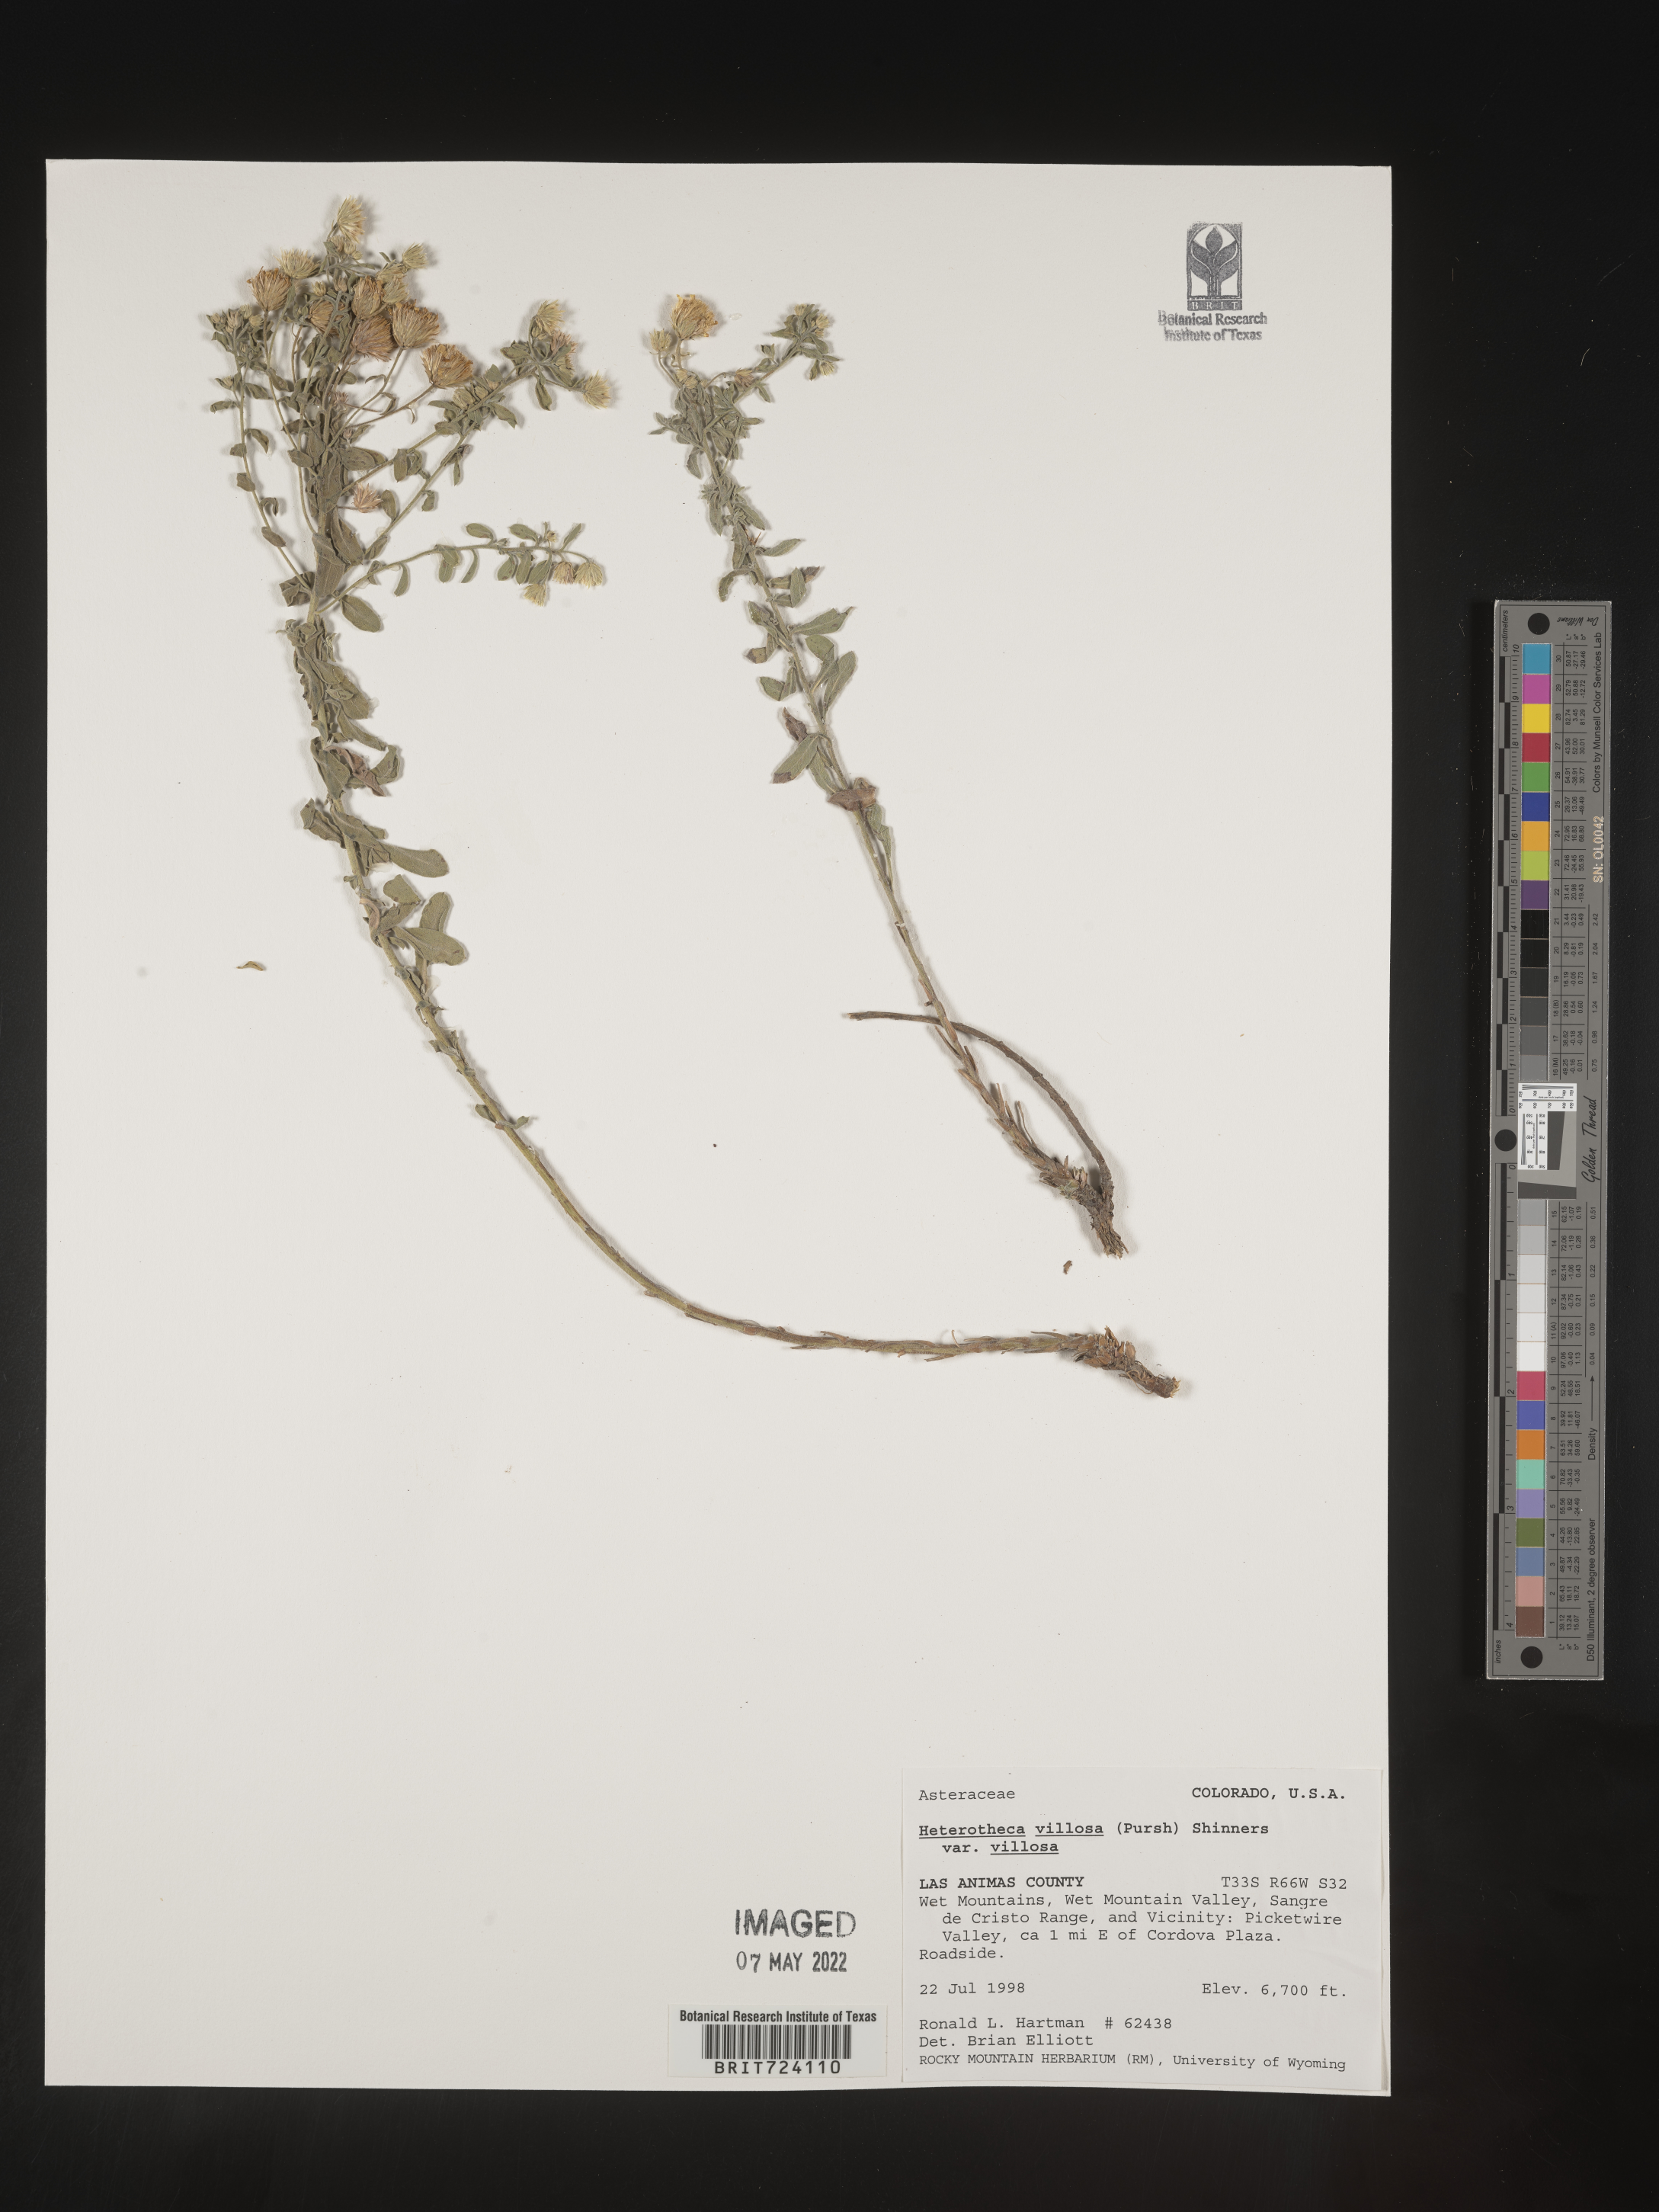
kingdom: Plantae
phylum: Tracheophyta
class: Magnoliopsida
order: Asterales
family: Asteraceae
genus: Heterotheca
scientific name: Heterotheca villosa
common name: Hairy false goldenaster
